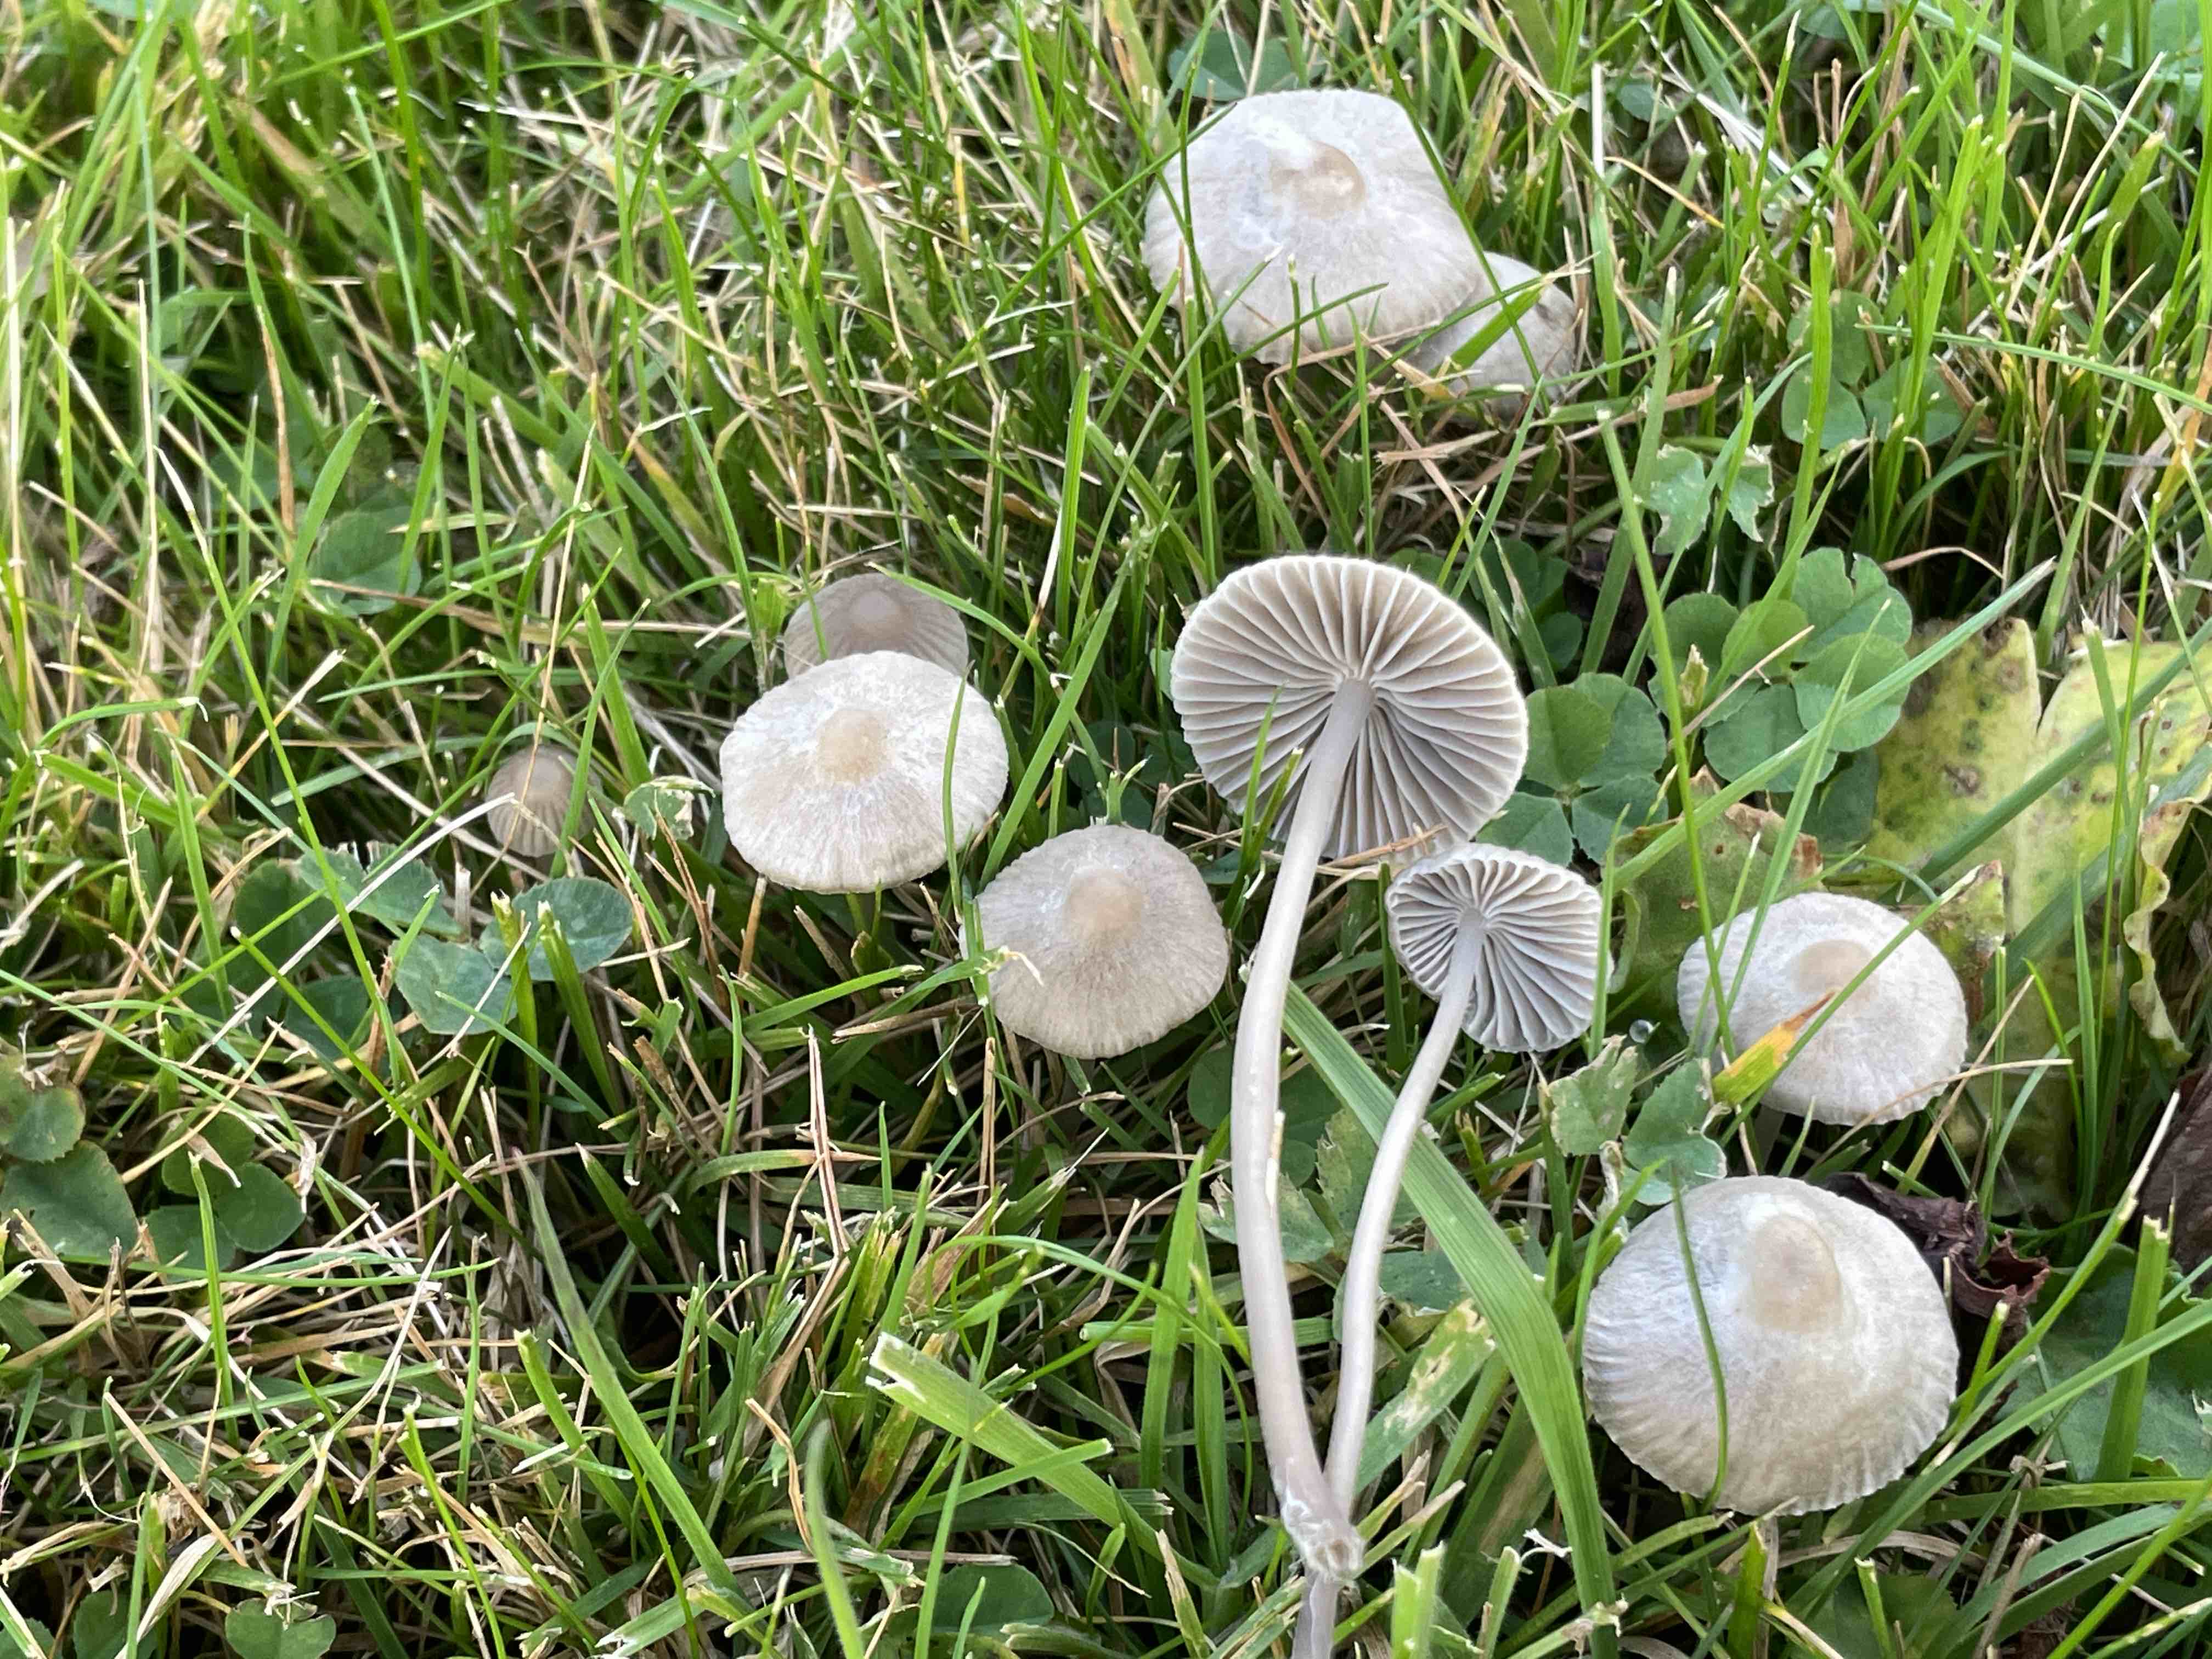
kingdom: Fungi
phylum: Basidiomycota
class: Agaricomycetes
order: Agaricales
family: Mycenaceae
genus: Mycena
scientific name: Mycena aetites
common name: plæne-huesvamp
